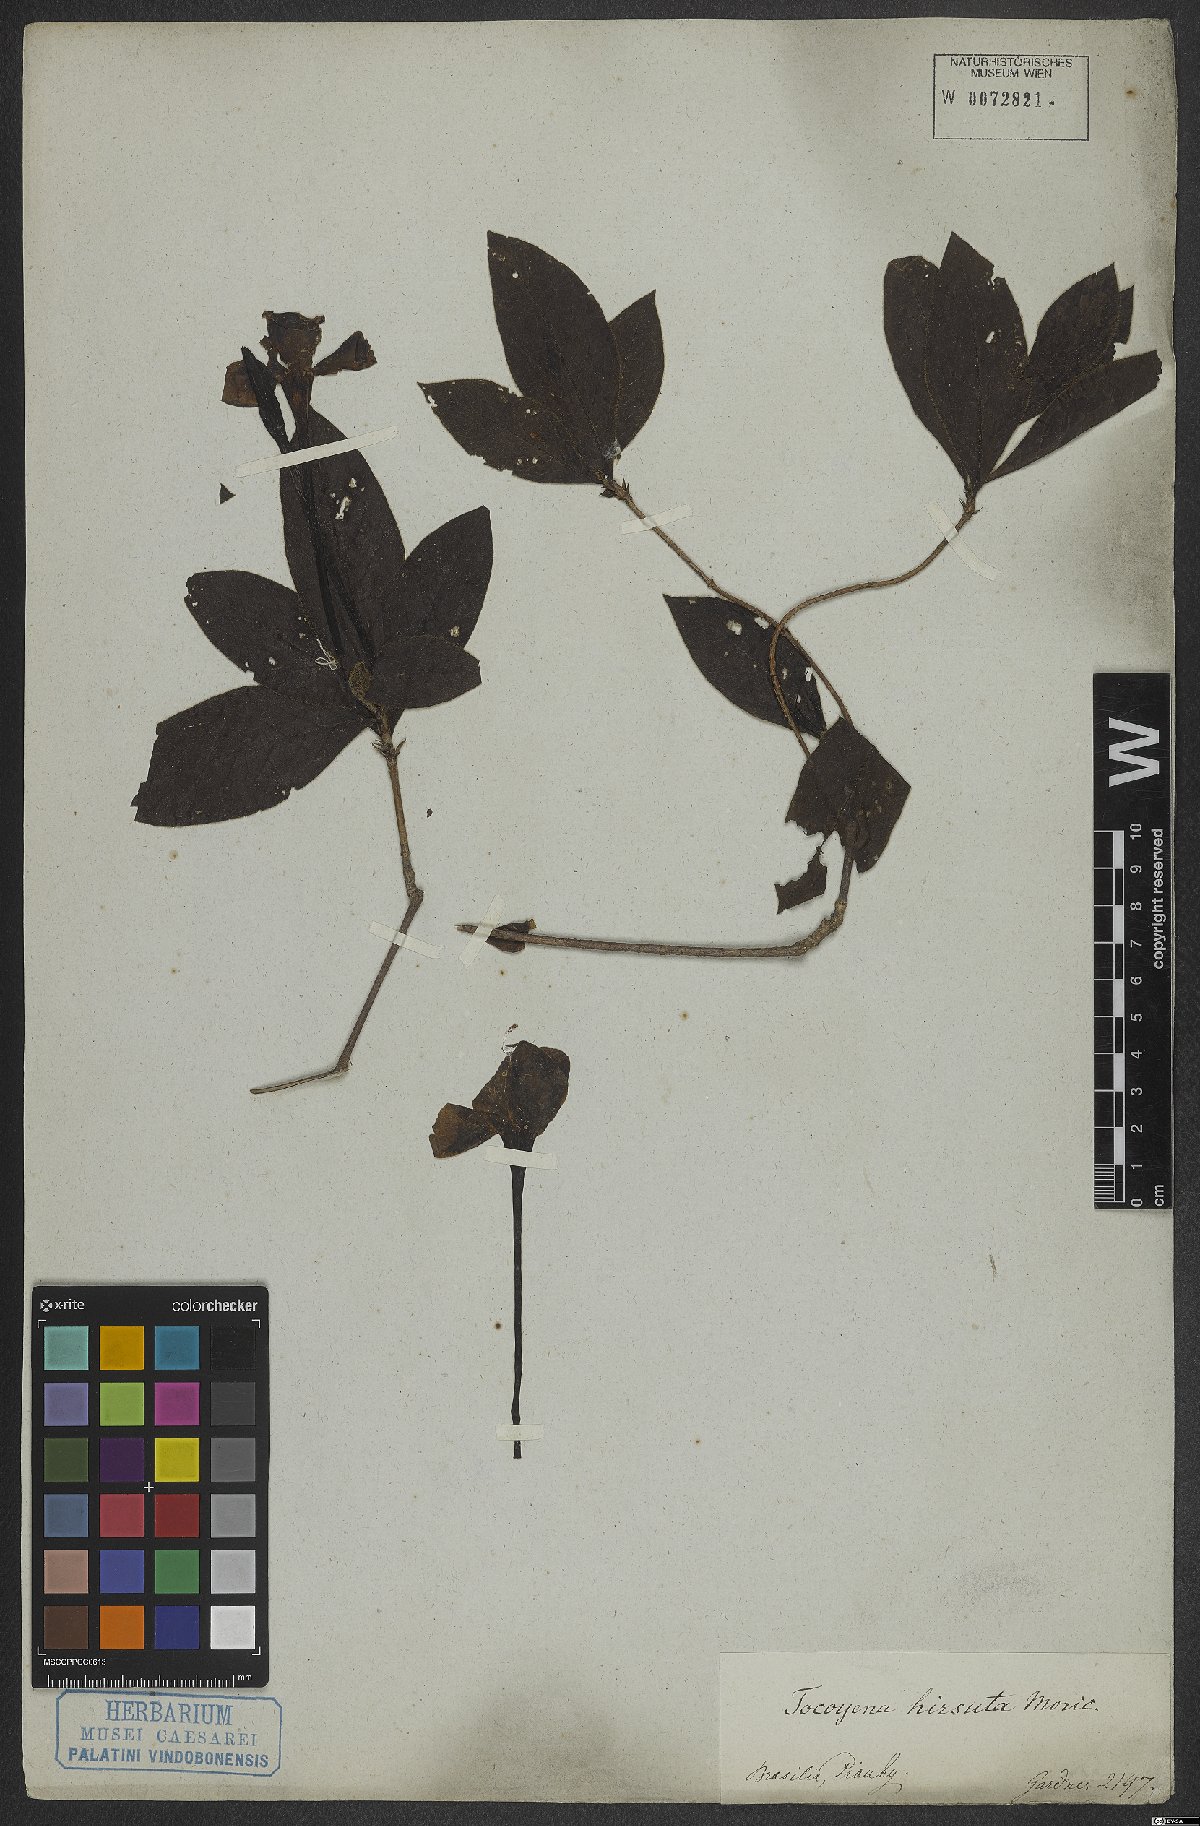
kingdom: Plantae
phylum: Tracheophyta
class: Magnoliopsida
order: Gentianales
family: Rubiaceae
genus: Tocoyena
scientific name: Tocoyena formosa
